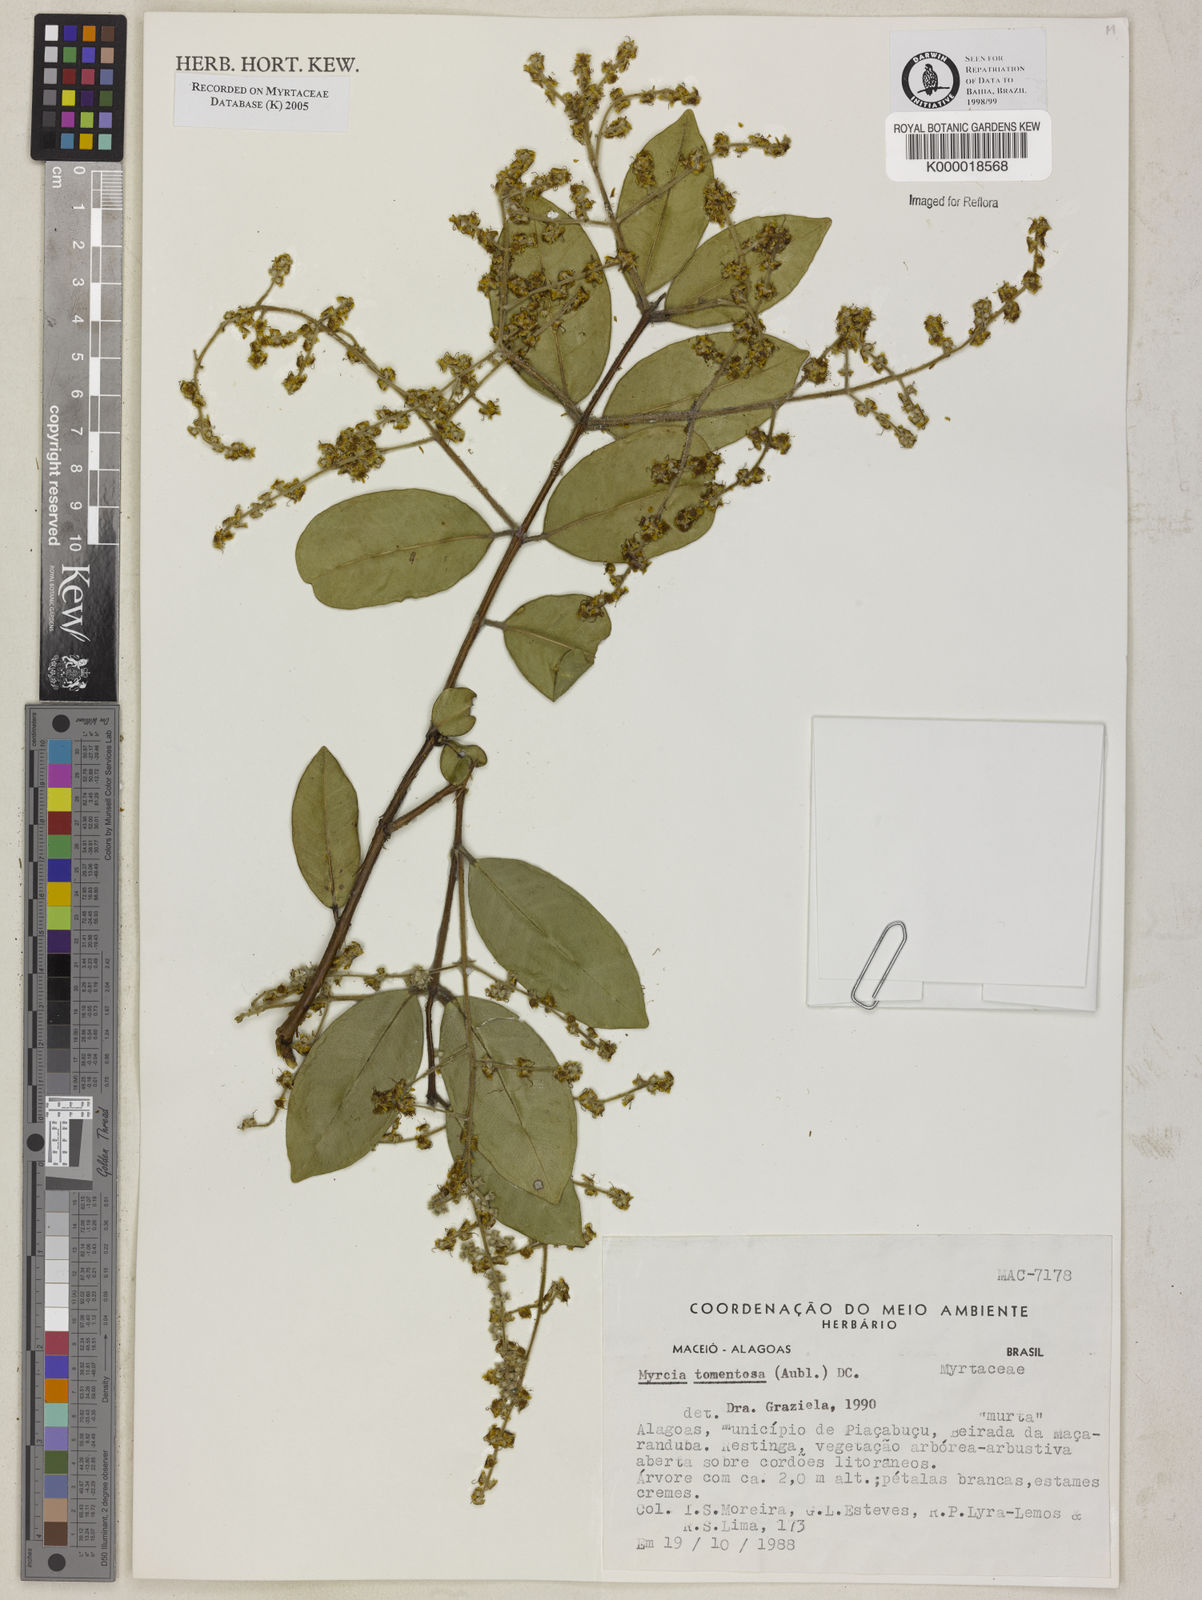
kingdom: Plantae
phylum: Tracheophyta
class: Magnoliopsida
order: Myrtales
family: Myrtaceae
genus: Myrcia
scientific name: Myrcia tomentosa
